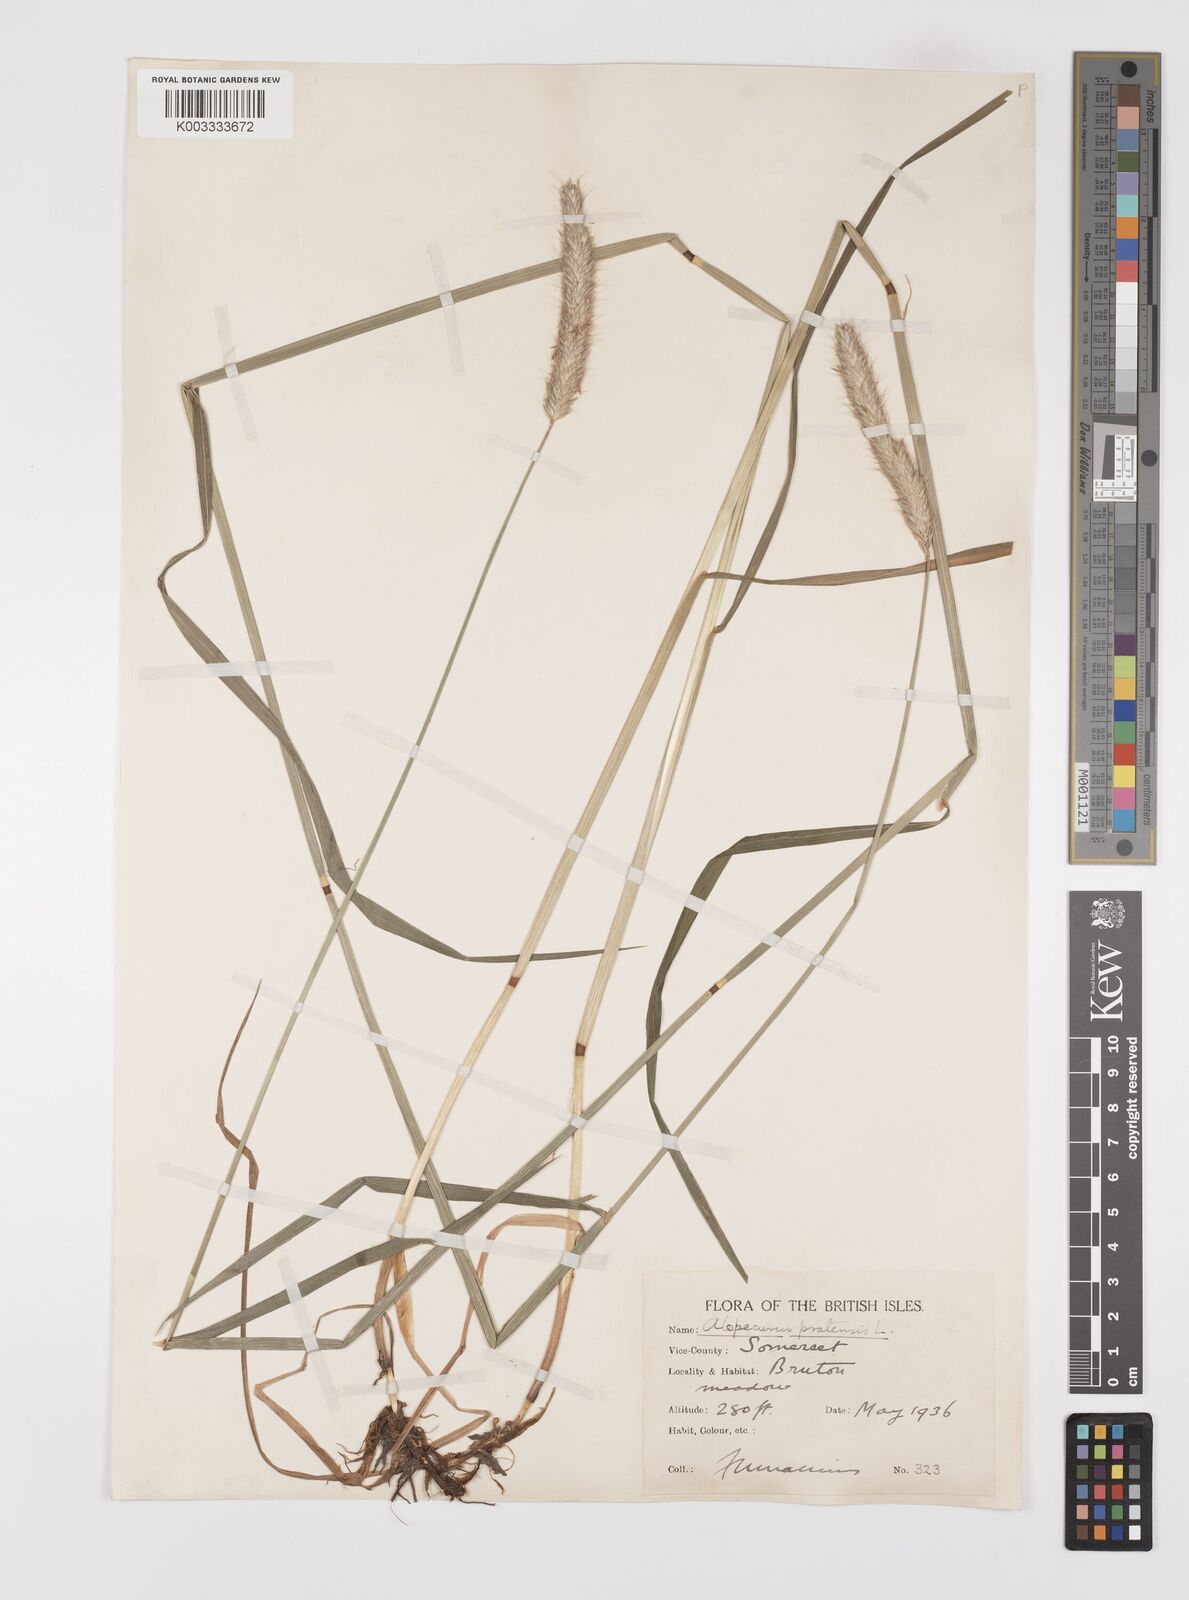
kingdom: Plantae
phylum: Tracheophyta
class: Liliopsida
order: Poales
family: Poaceae
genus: Alopecurus
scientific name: Alopecurus pratensis
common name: Meadow foxtail
